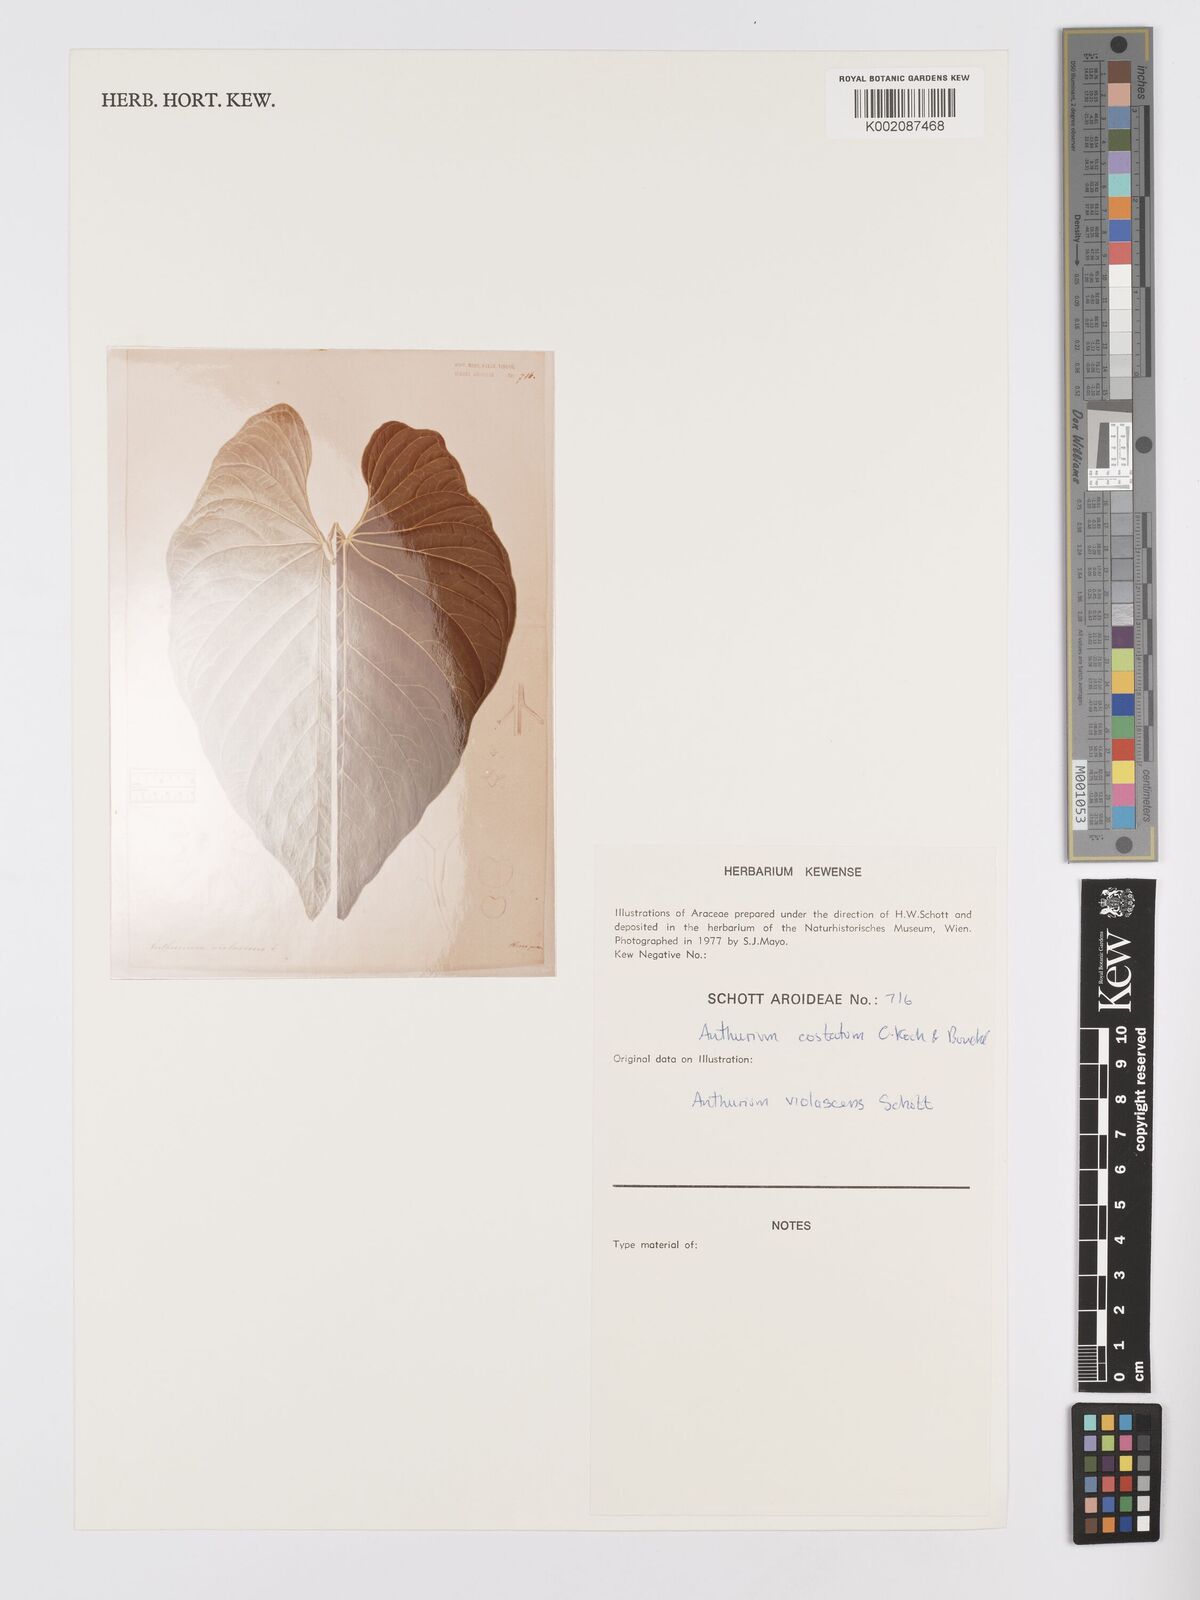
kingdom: Plantae
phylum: Tracheophyta
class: Liliopsida
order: Alismatales
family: Araceae
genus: Anthurium
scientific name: Anthurium macrophyllum
